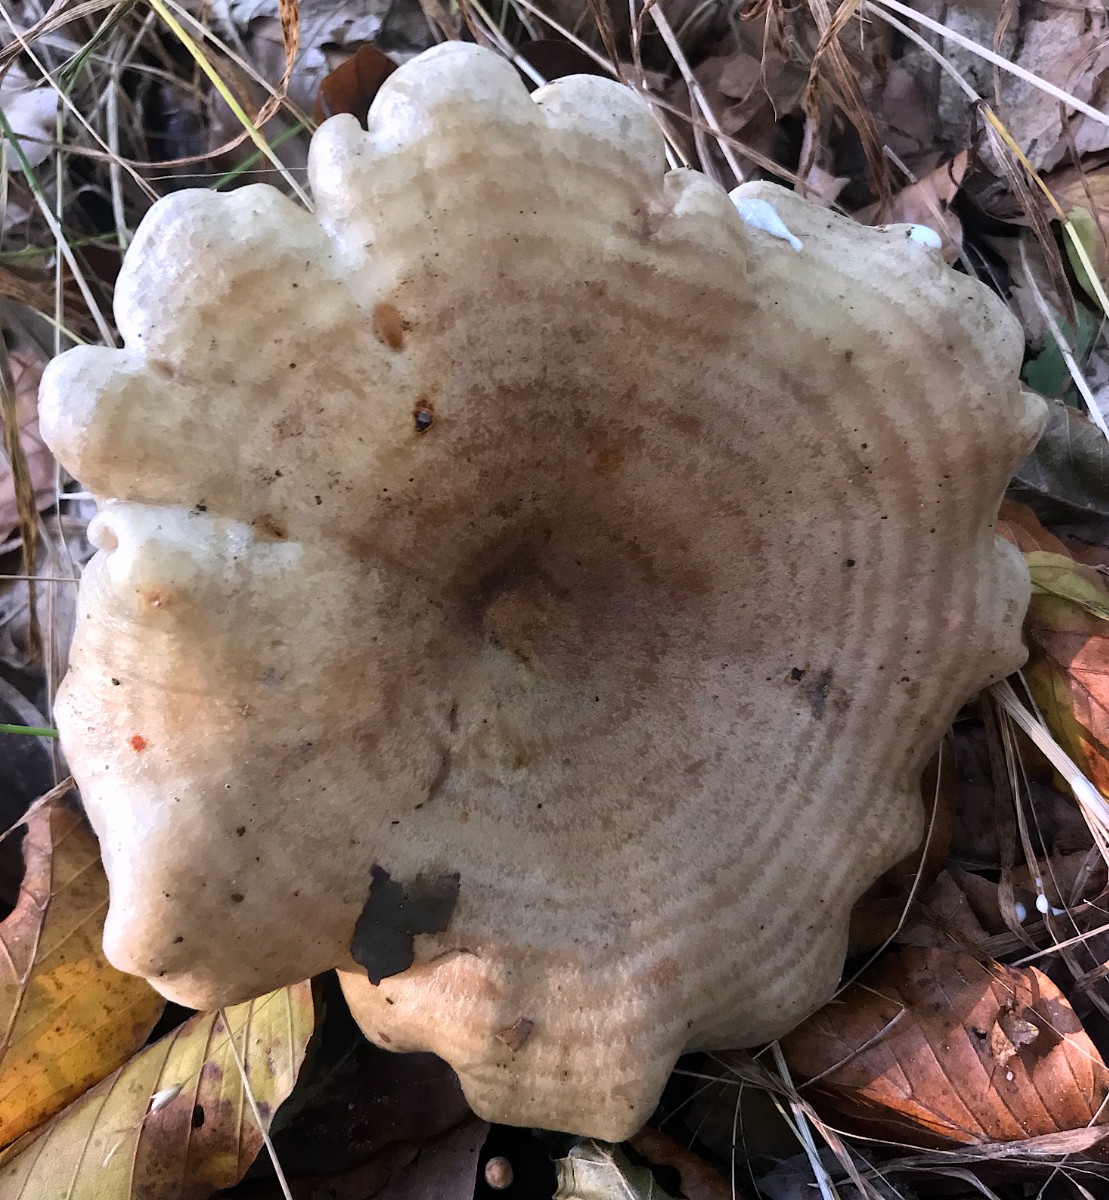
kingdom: Fungi
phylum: Basidiomycota
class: Agaricomycetes
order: Russulales
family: Russulaceae
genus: Lactarius
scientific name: Lactarius circellatus
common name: avnbøg-mælkehat
